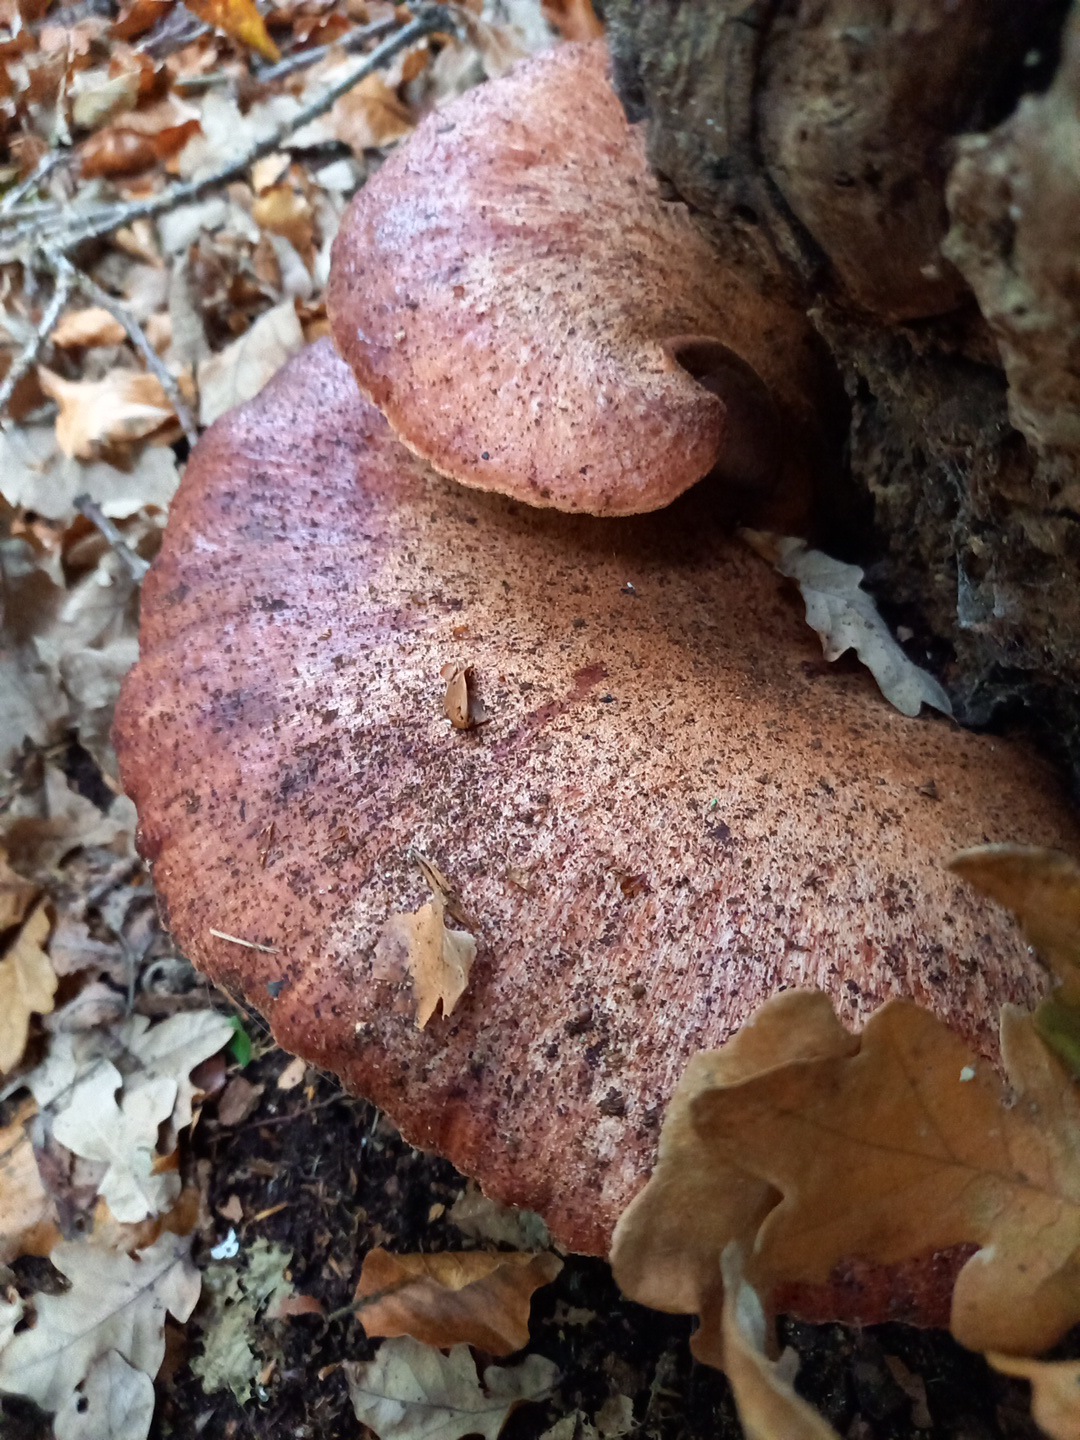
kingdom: Fungi
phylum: Basidiomycota
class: Agaricomycetes
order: Agaricales
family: Fistulinaceae
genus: Fistulina
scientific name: Fistulina hepatica
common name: oksetunge
